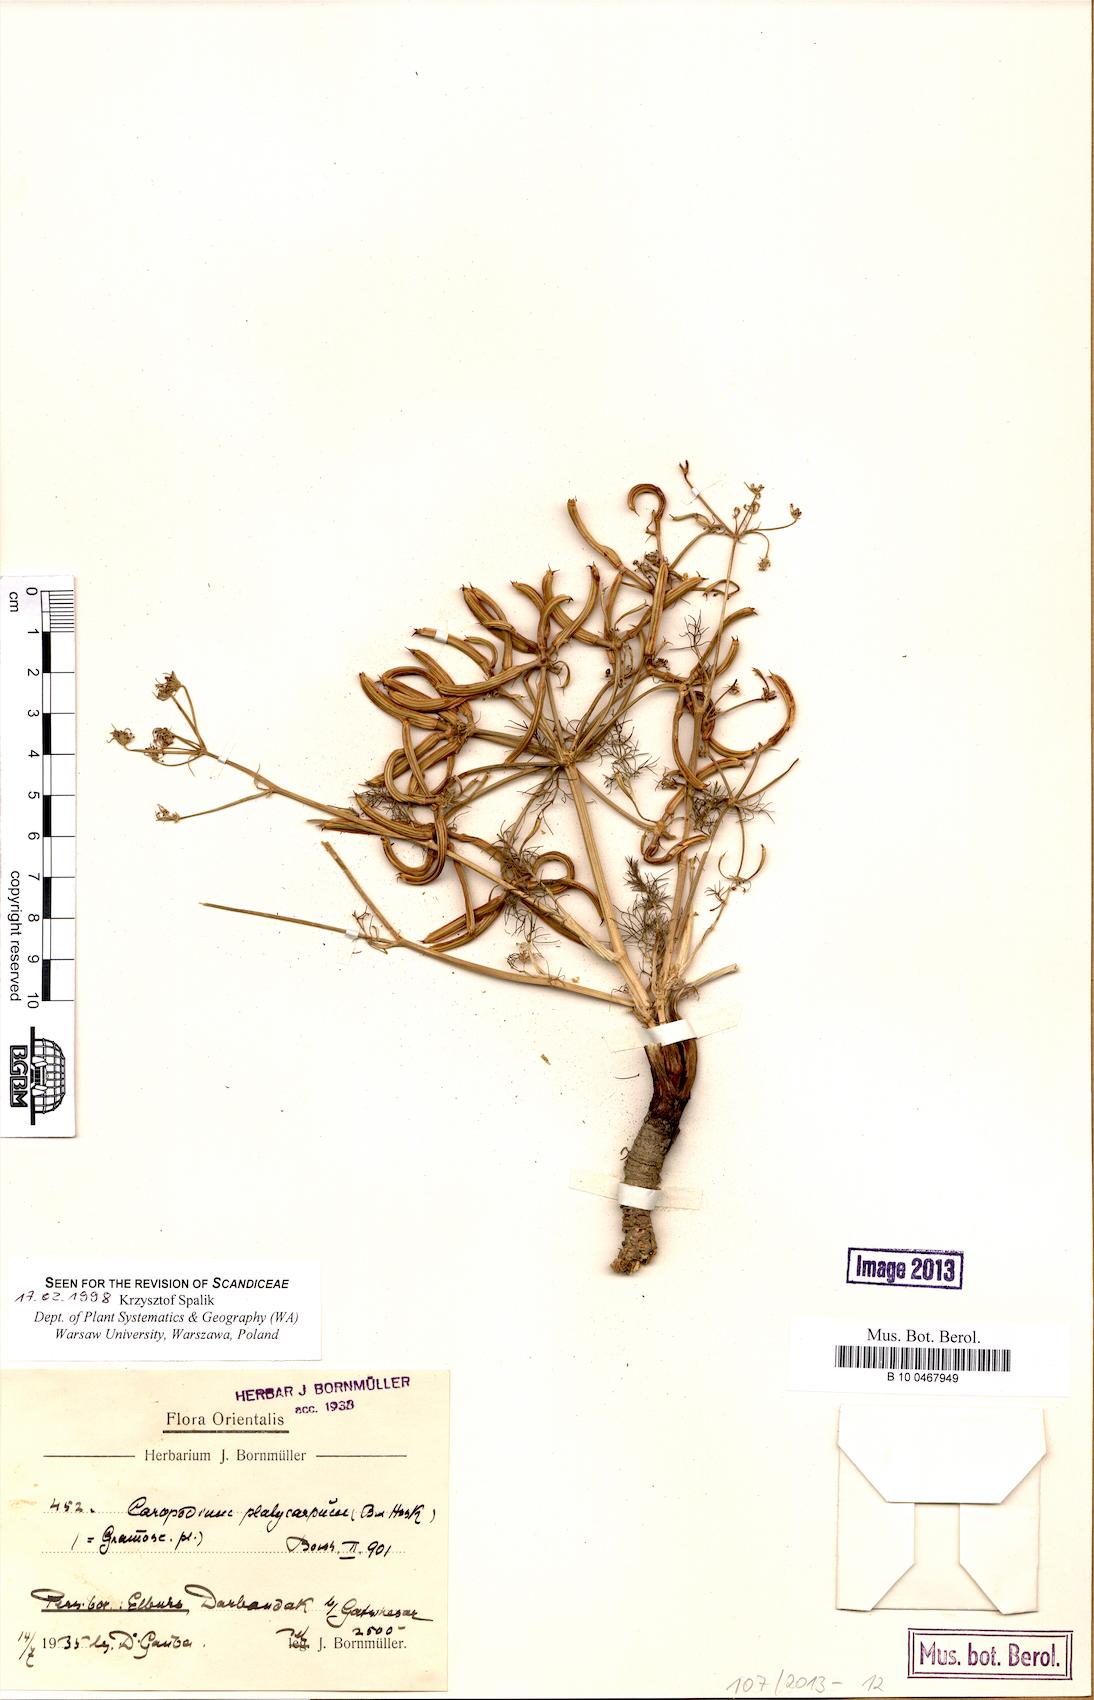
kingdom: Plantae
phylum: Tracheophyta
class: Magnoliopsida
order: Apiales
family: Apiaceae
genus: Caropodium
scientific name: Caropodium platycarpum
